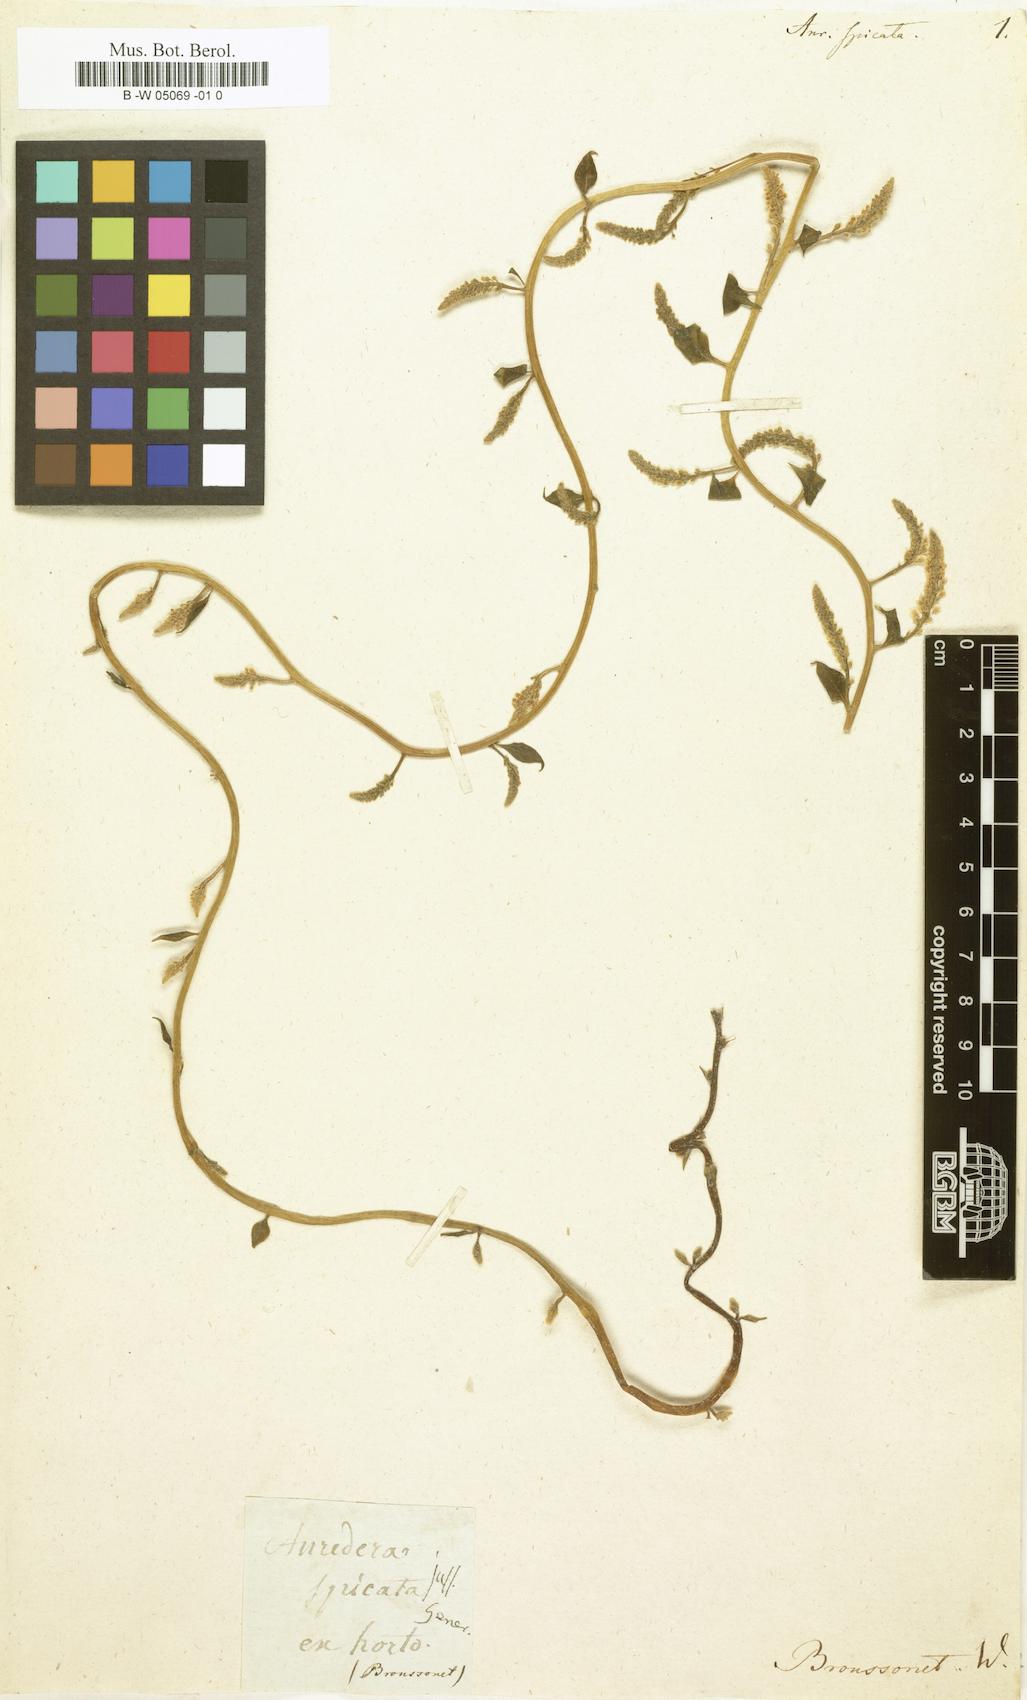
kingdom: Plantae
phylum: Tracheophyta
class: Magnoliopsida
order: Caryophyllales
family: Basellaceae
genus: Anredera
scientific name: Anredera vesicaria
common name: Sacasile
